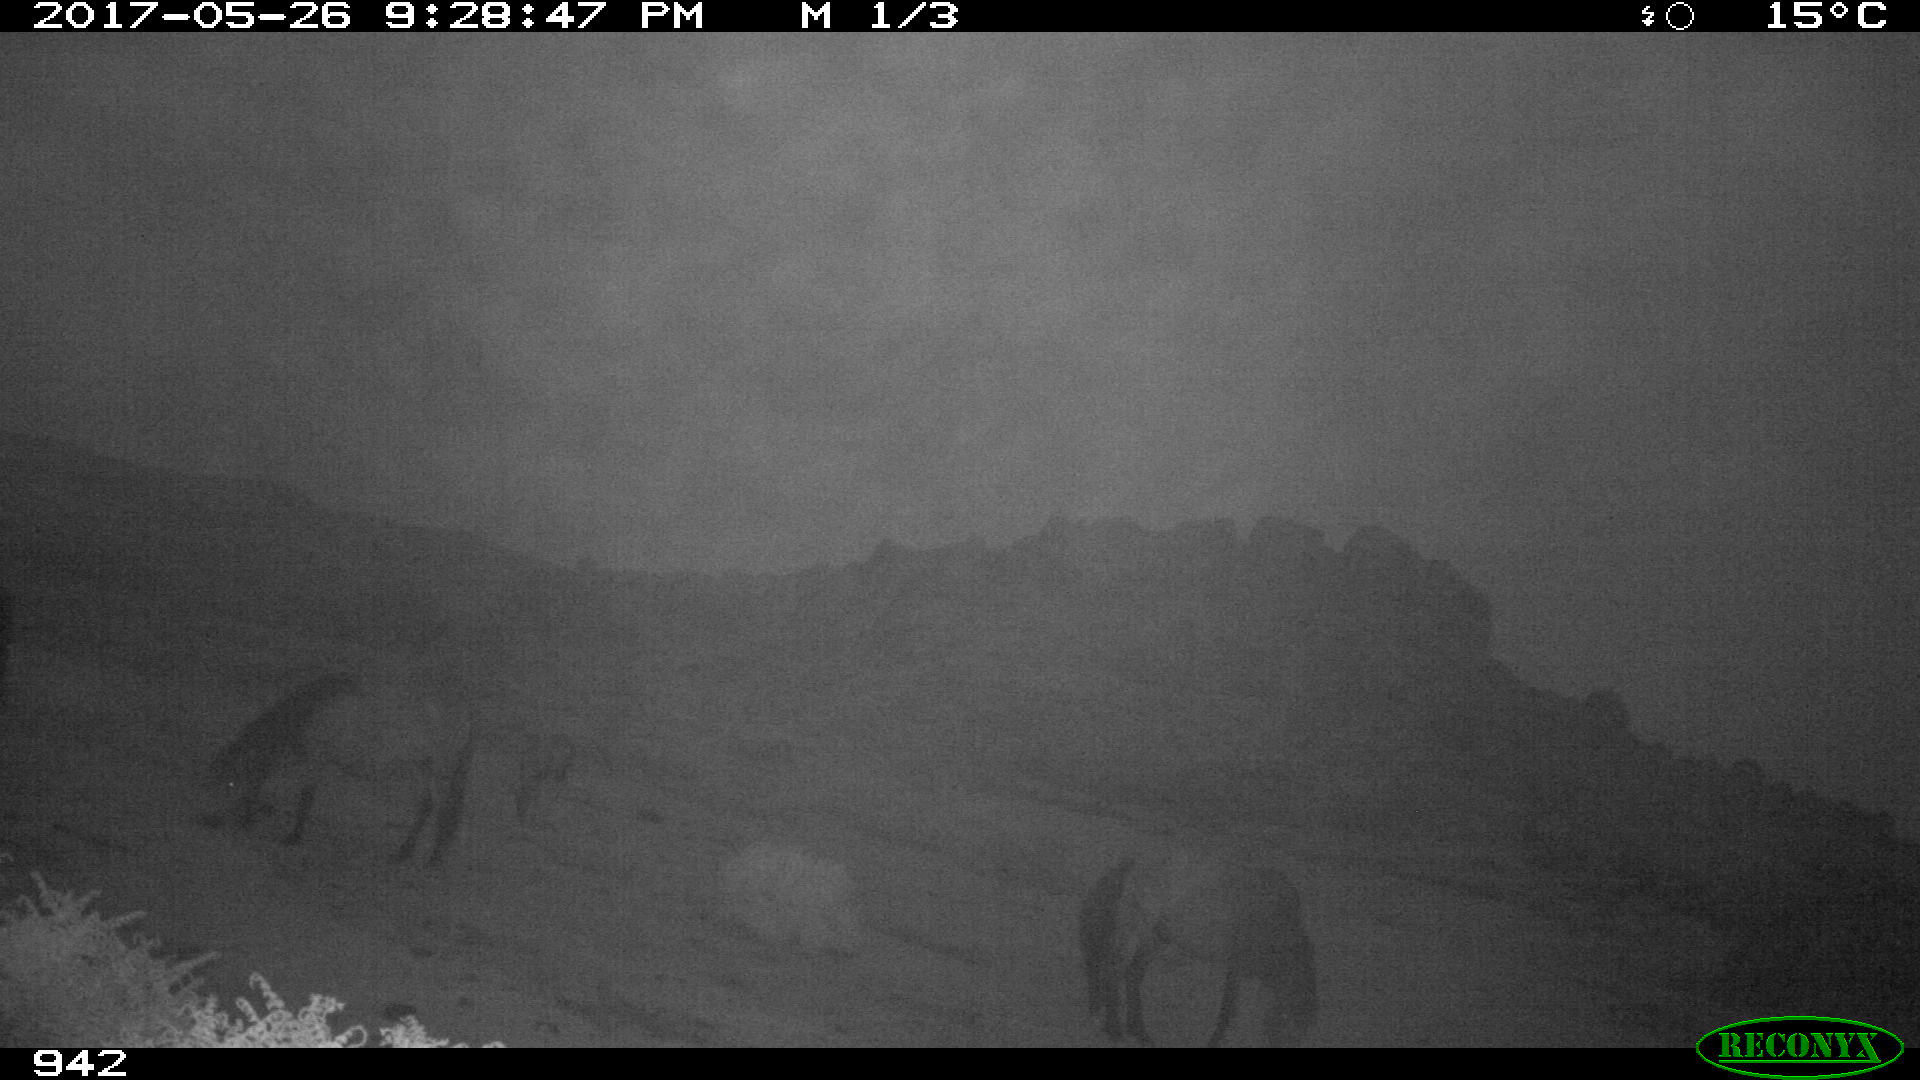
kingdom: Animalia
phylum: Chordata
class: Mammalia
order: Perissodactyla
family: Equidae
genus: Equus
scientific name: Equus caballus
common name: Horse
